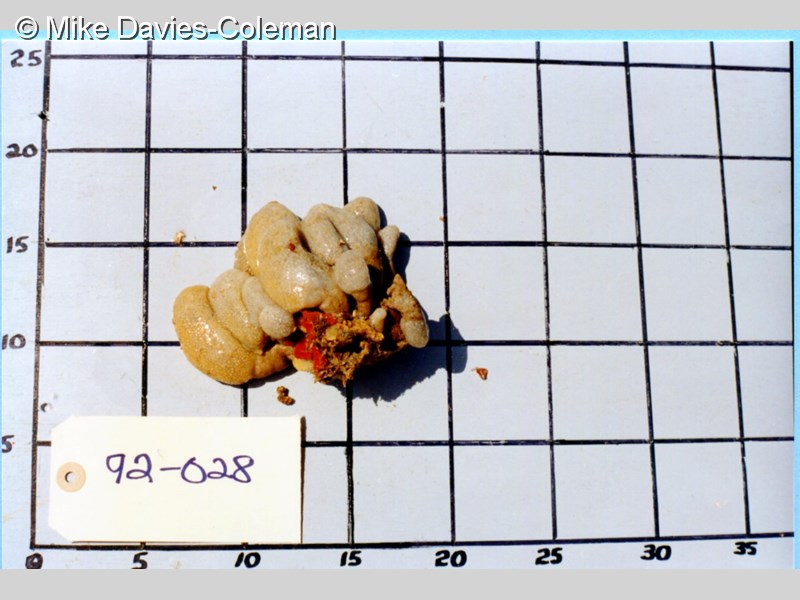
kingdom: Animalia
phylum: Chordata
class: Ascidiacea
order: Aplousobranchia
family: Pseudodistomidae
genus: Pseudodistoma
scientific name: Pseudodistoma africanum
